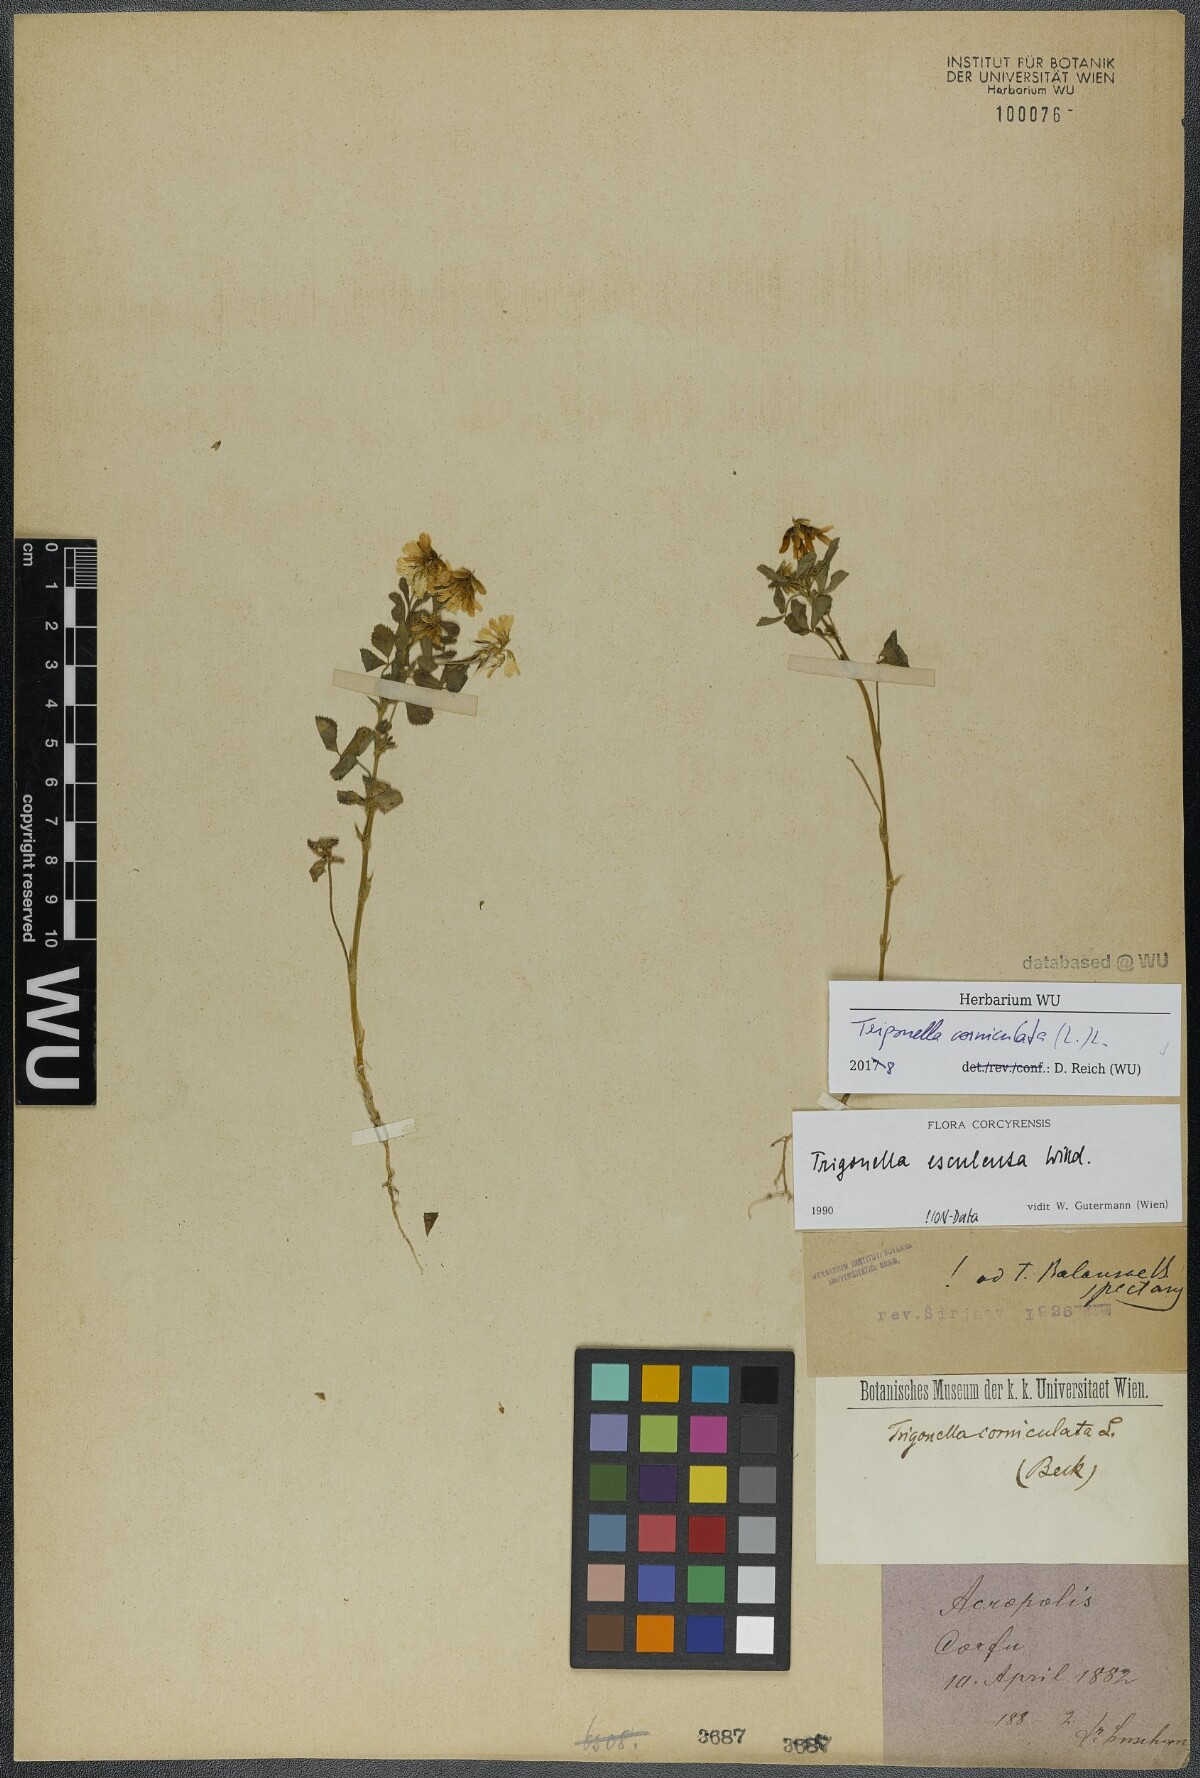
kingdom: Plantae
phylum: Tracheophyta
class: Magnoliopsida
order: Fabales
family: Fabaceae
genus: Trigonella
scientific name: Trigonella balansae
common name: Sickle-fruited fenugreek
